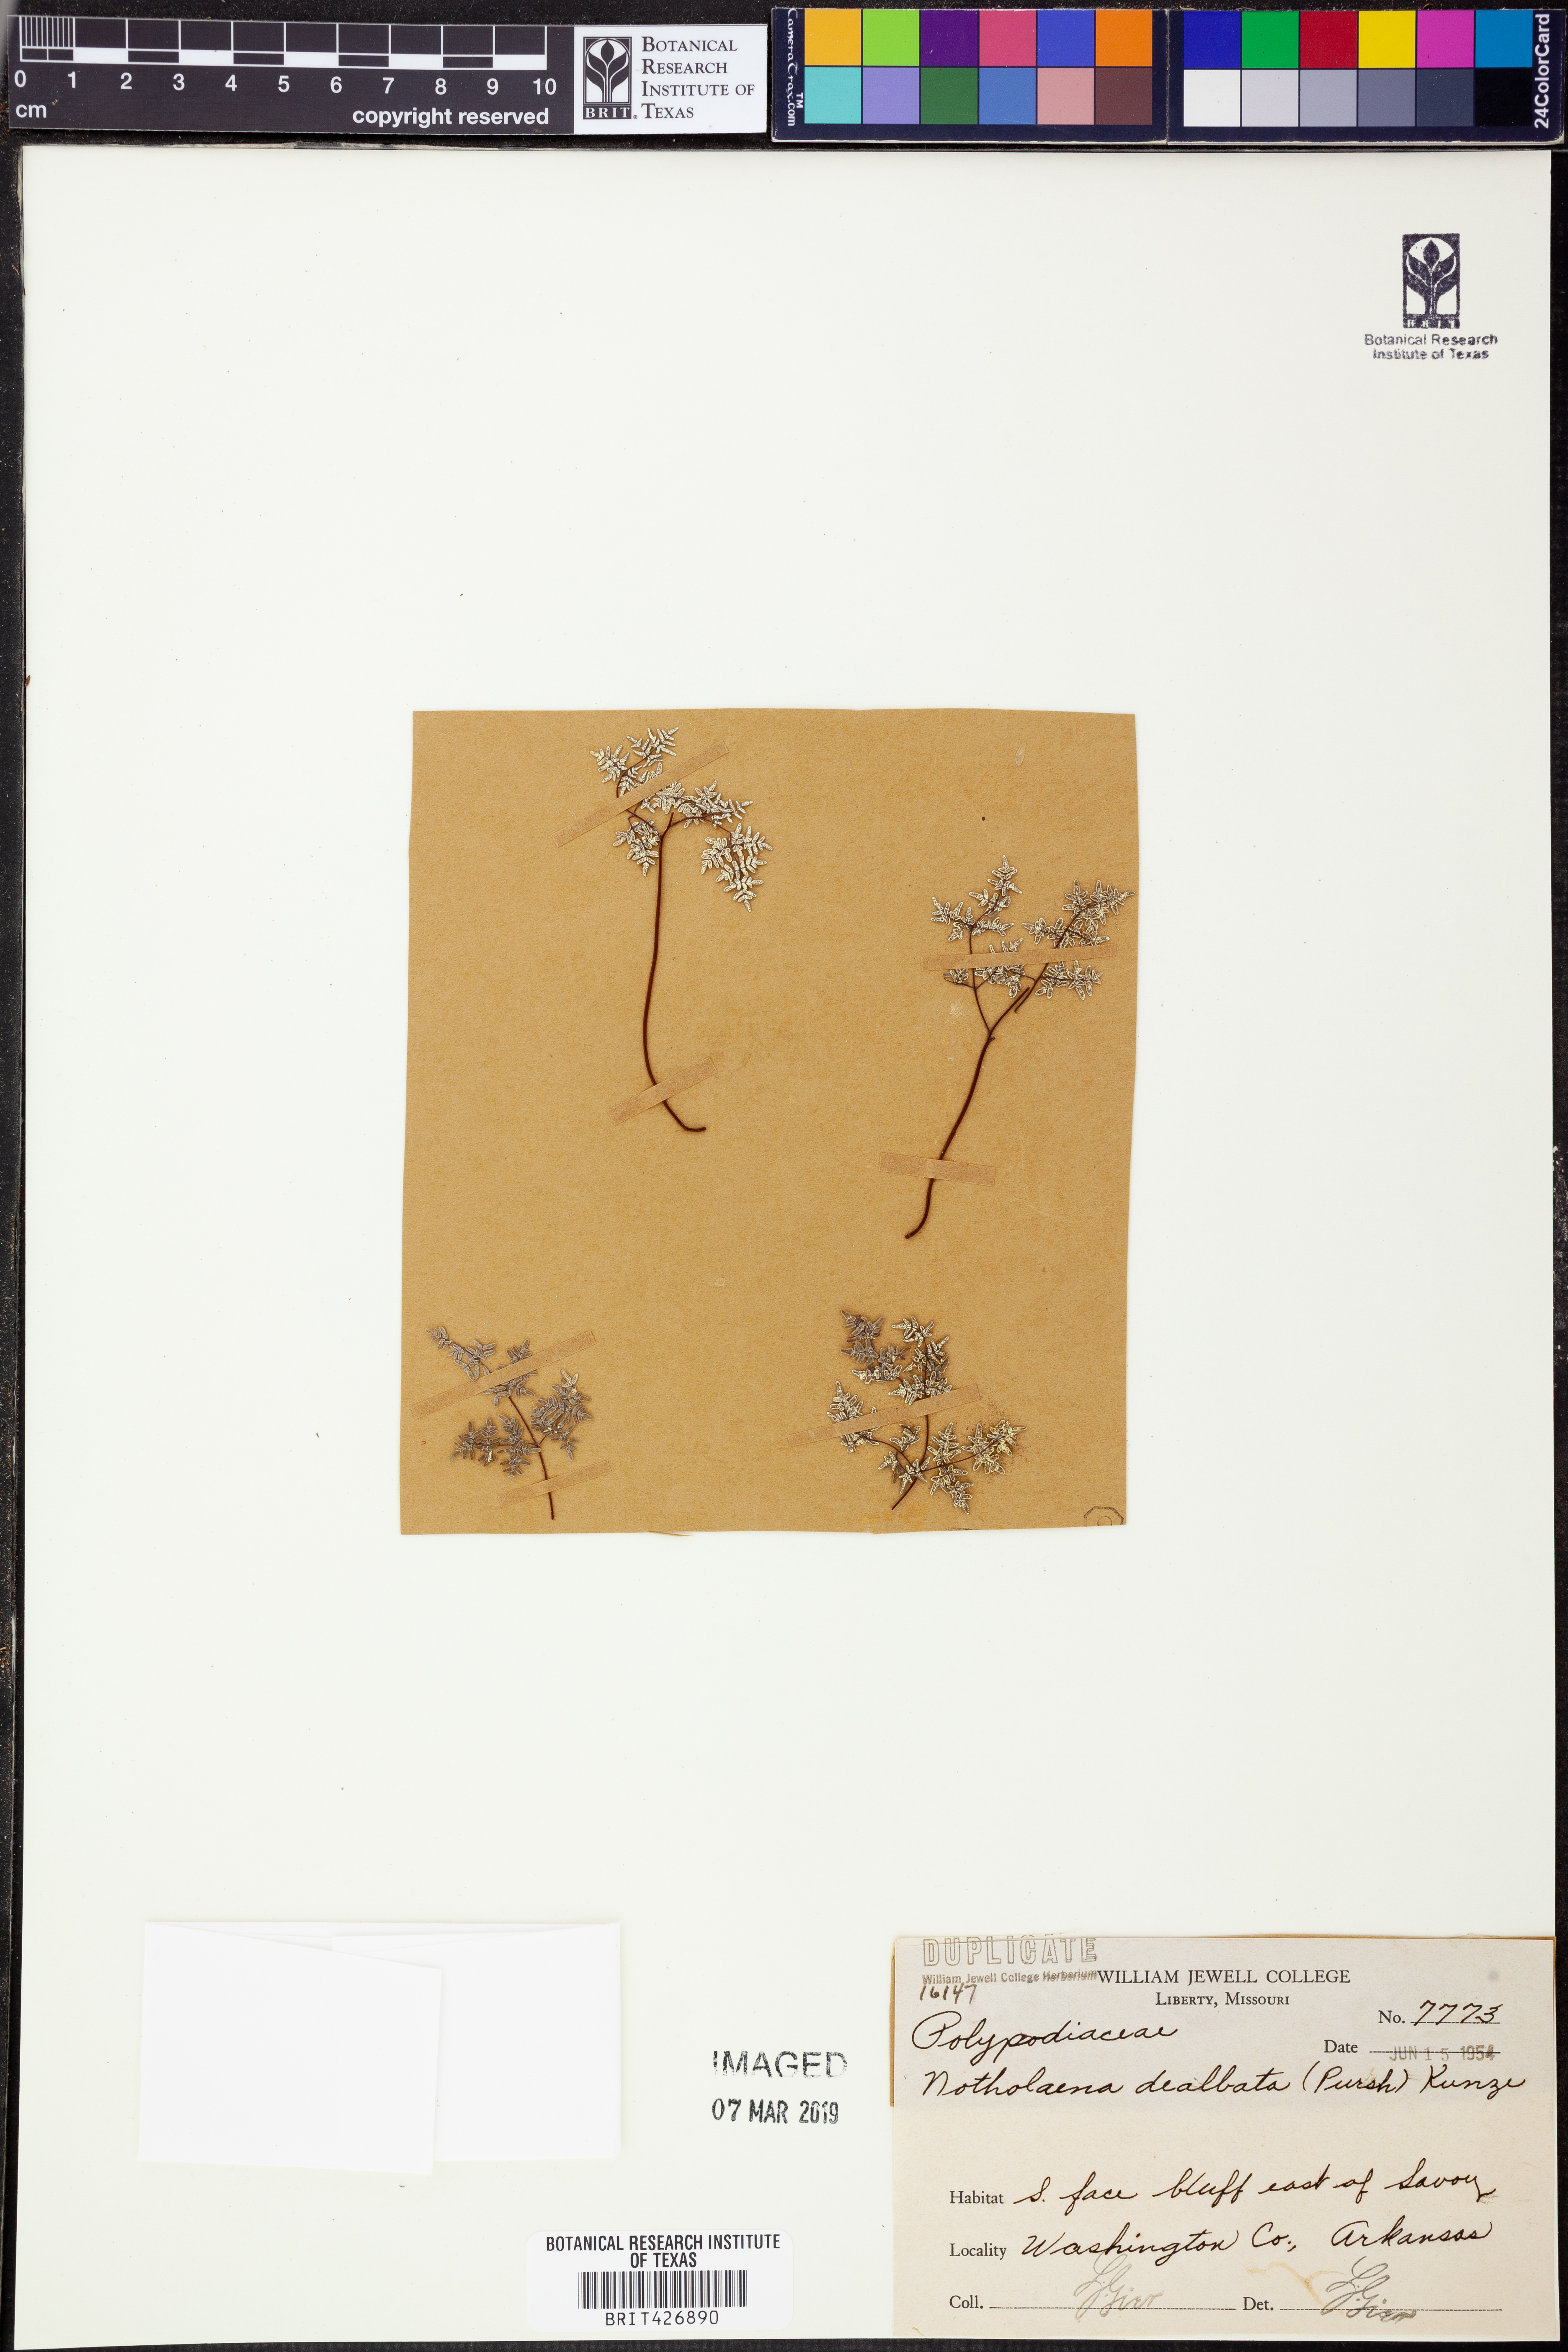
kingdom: Plantae
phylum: Tracheophyta
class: Polypodiopsida
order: Polypodiales
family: Pteridaceae
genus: Argyrochosma
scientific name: Argyrochosma dealbata
